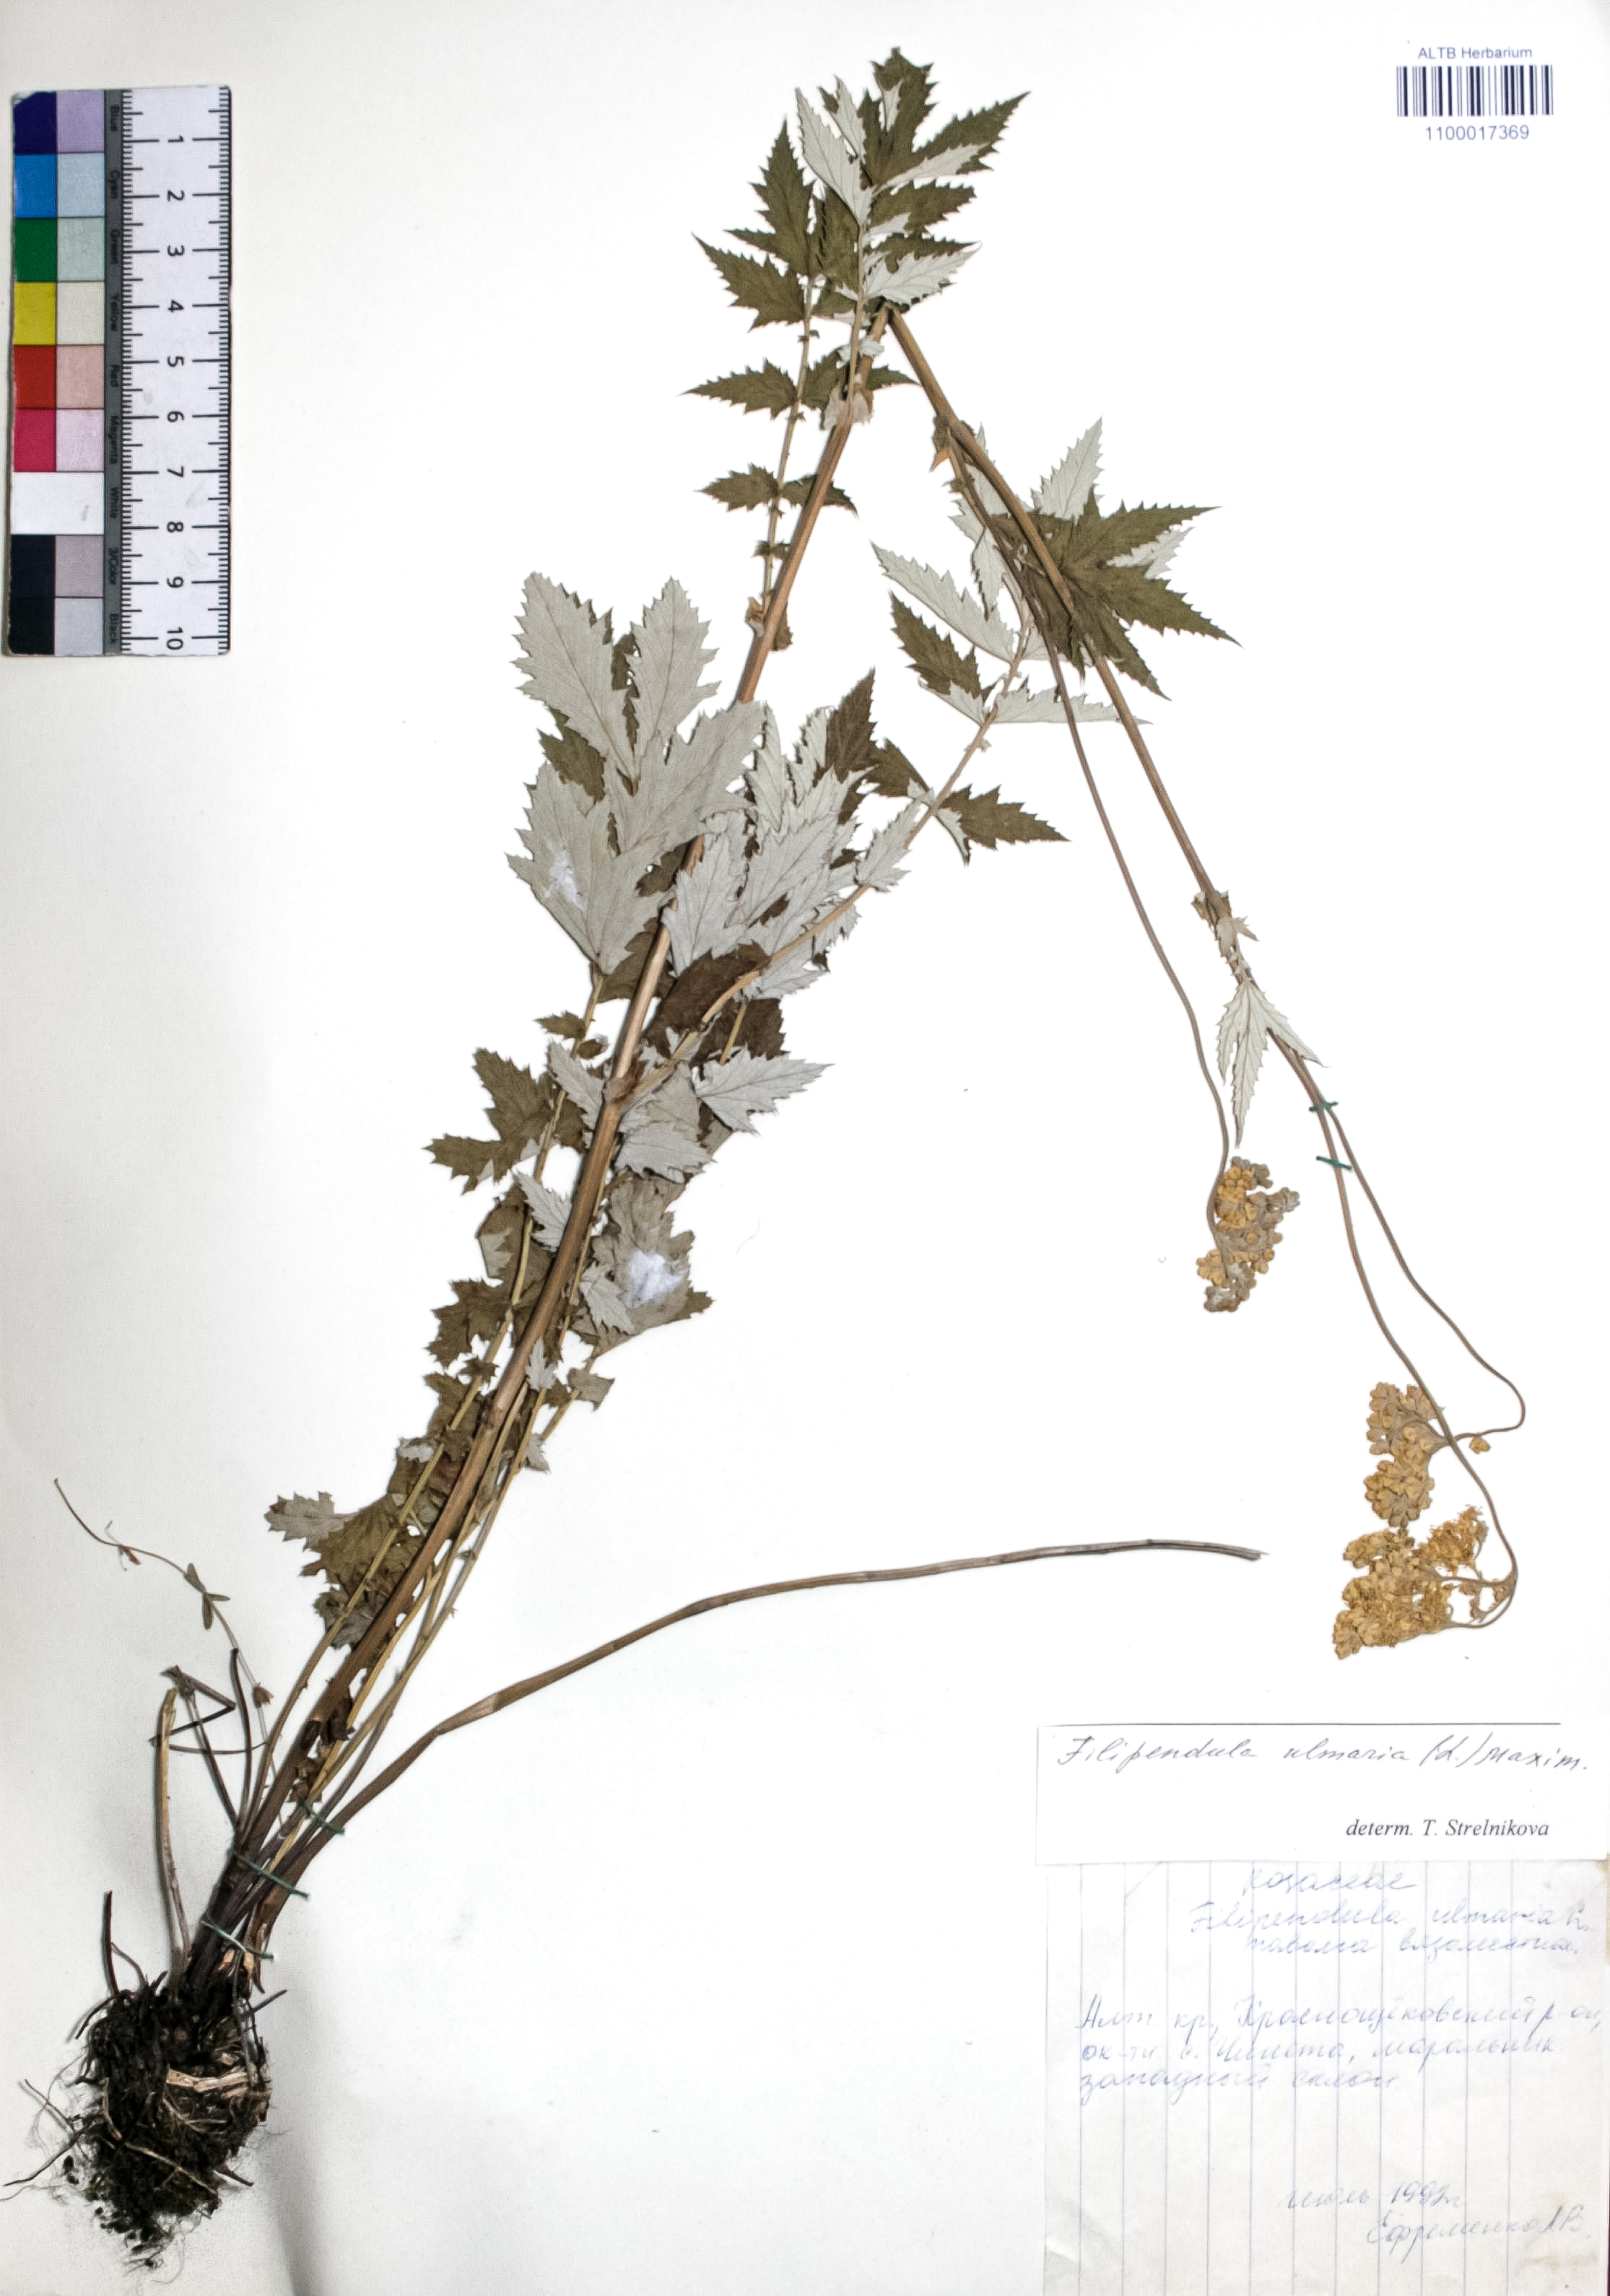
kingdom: Plantae
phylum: Tracheophyta
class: Magnoliopsida
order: Rosales
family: Rosaceae
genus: Filipendula
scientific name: Filipendula ulmaria
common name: Meadowsweet
